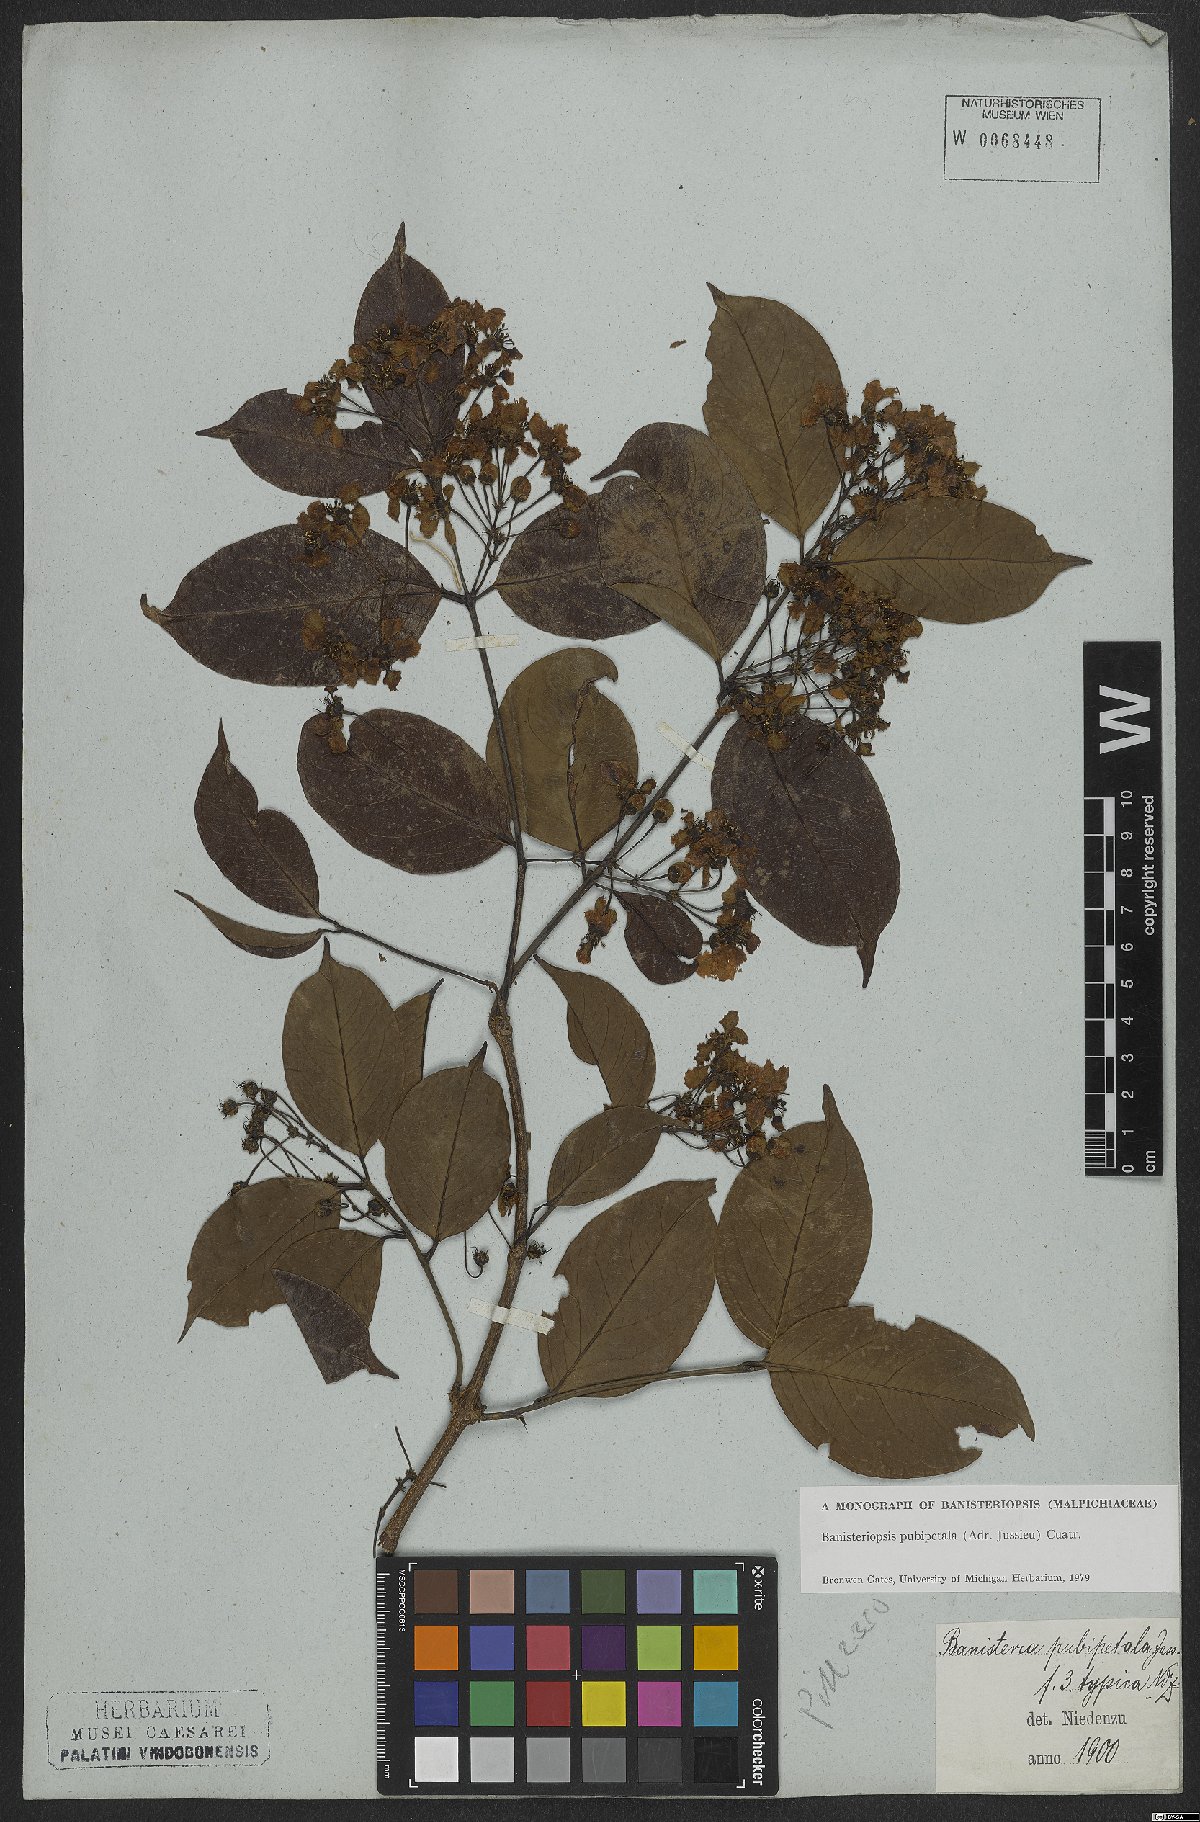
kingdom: Plantae
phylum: Tracheophyta
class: Magnoliopsida
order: Malpighiales
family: Malpighiaceae
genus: Diplopterys
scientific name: Diplopterys pubipetala
